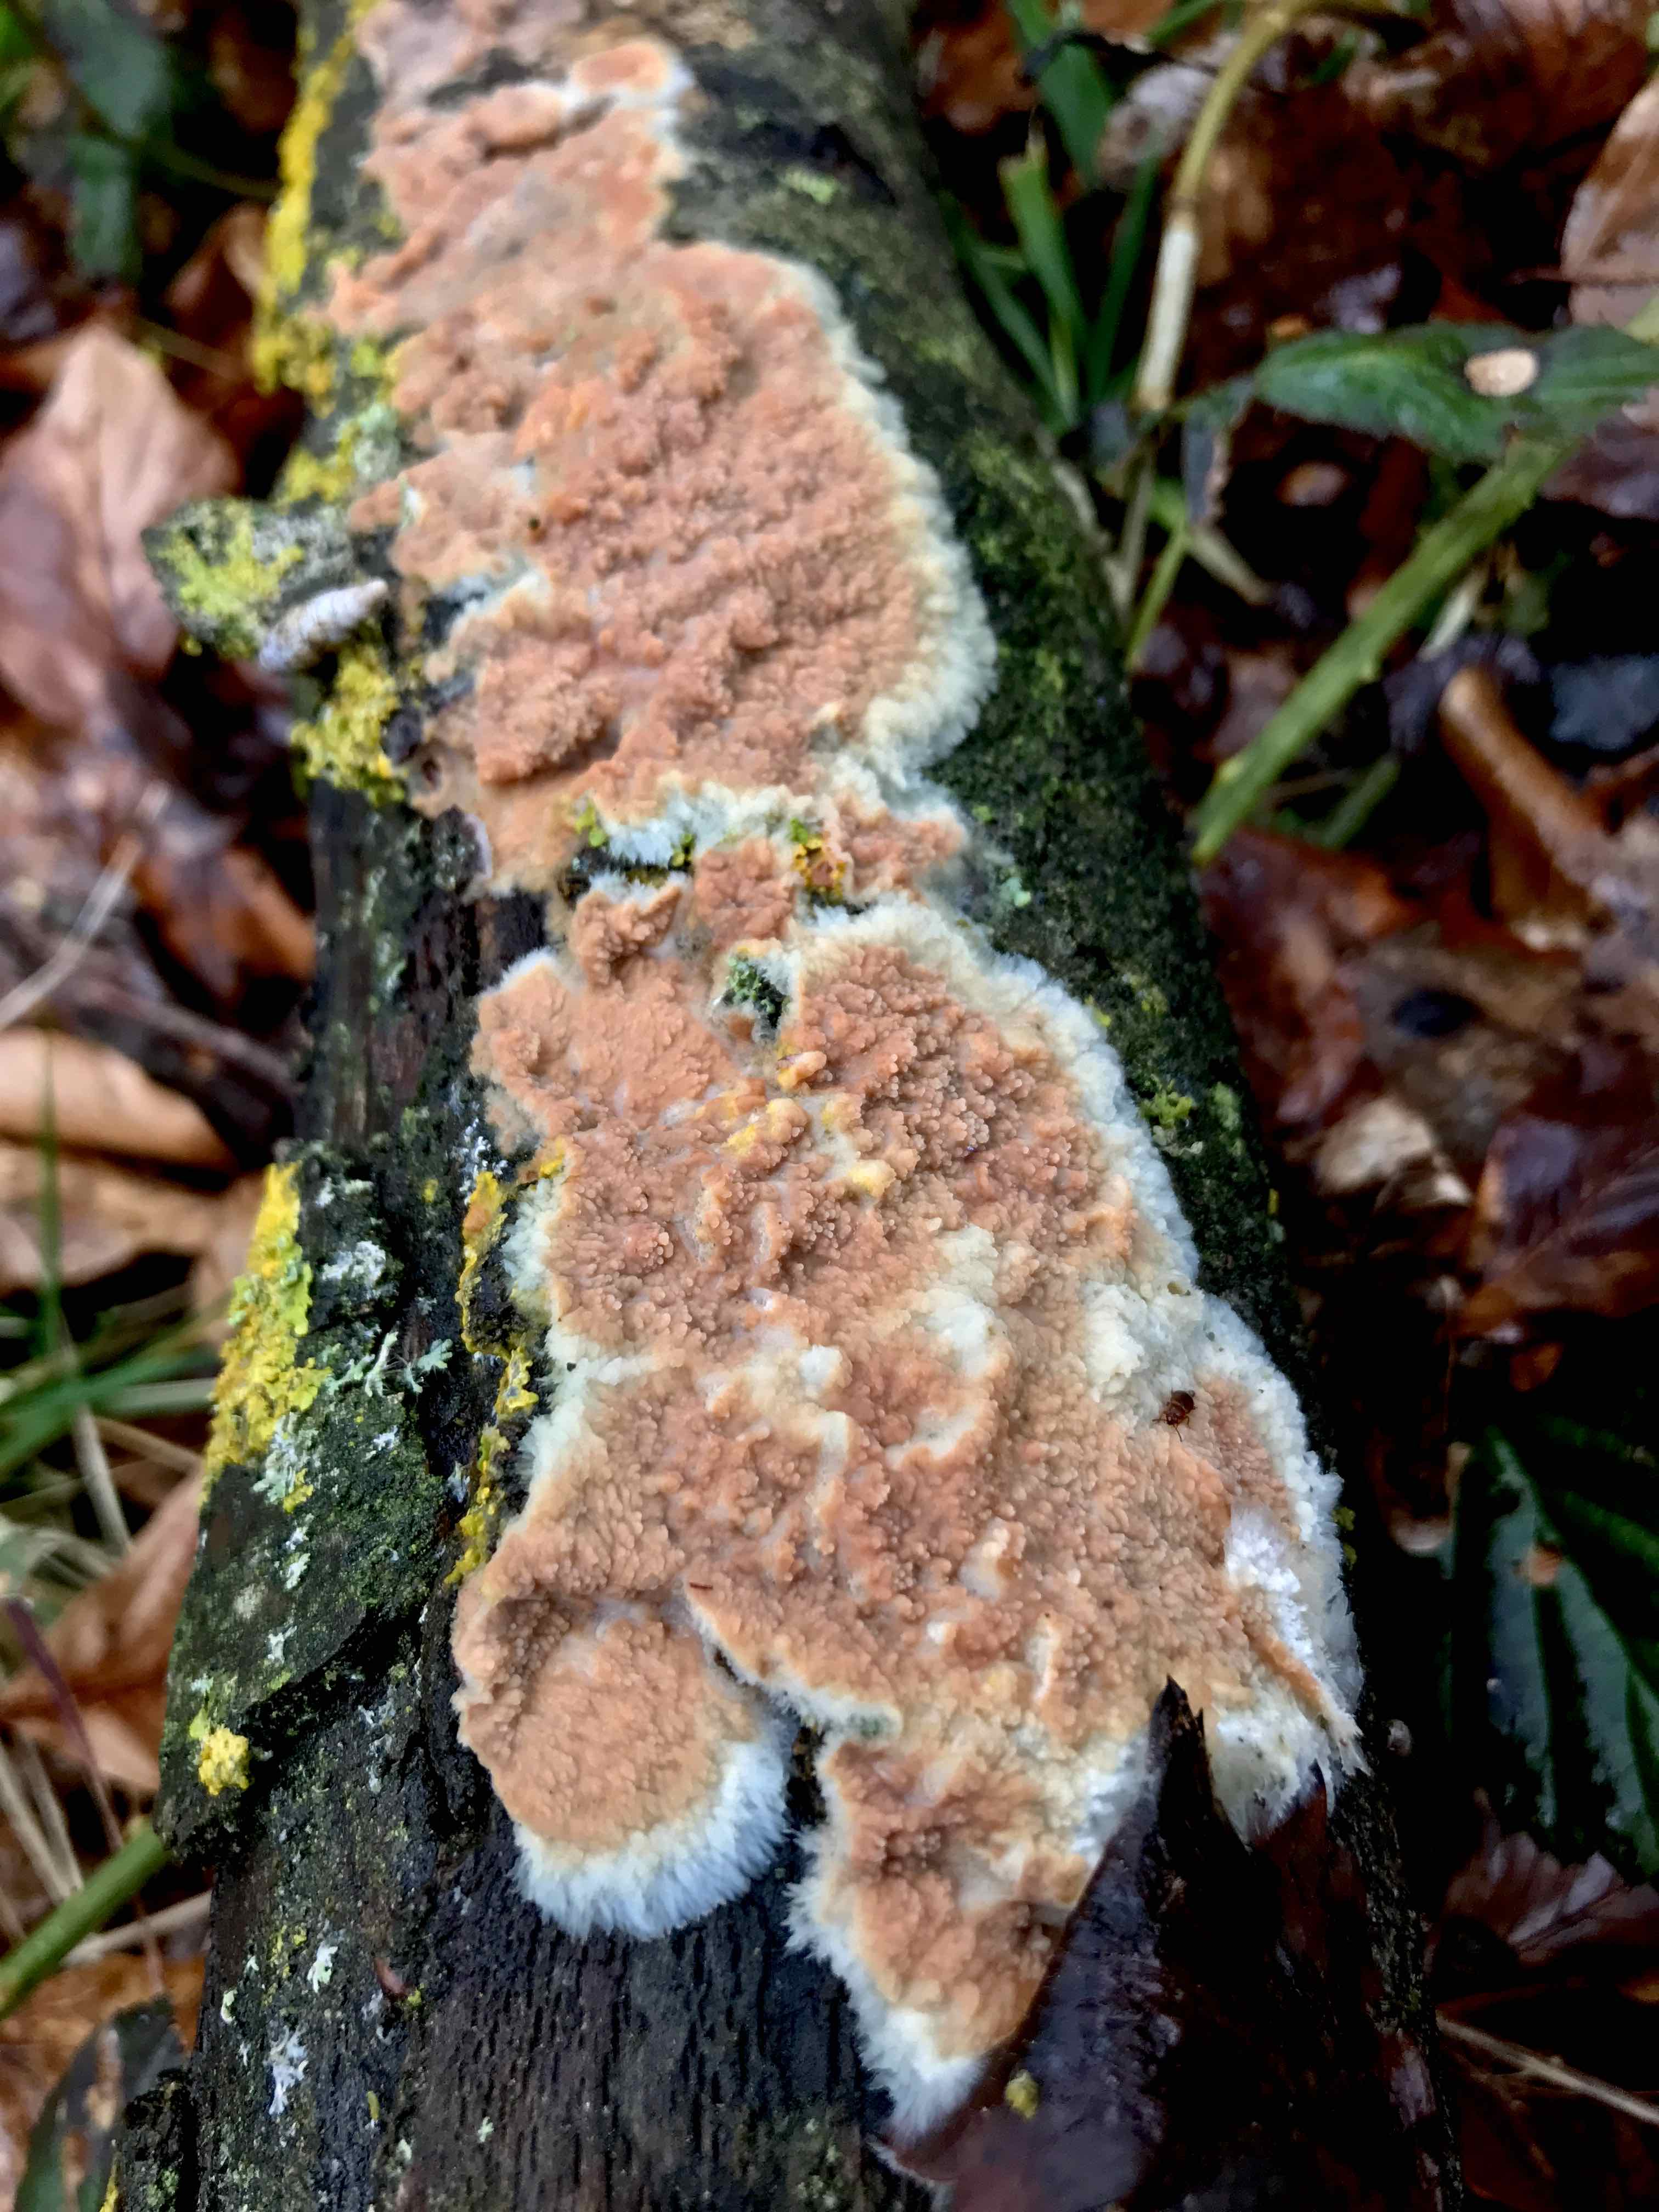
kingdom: Fungi
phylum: Basidiomycota
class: Agaricomycetes
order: Polyporales
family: Meruliaceae
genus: Phlebia
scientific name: Phlebia radiata
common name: stråle-åresvamp
